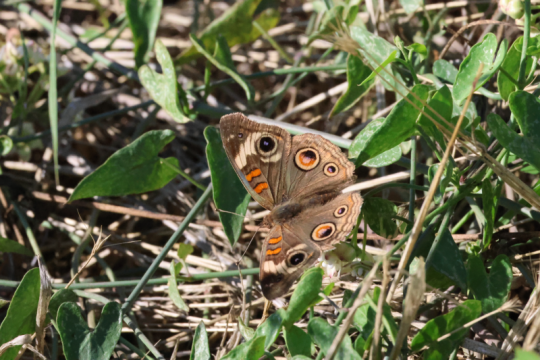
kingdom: Animalia
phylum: Arthropoda
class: Insecta
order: Lepidoptera
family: Nymphalidae
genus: Junonia
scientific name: Junonia coenia
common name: Common Buckeye
